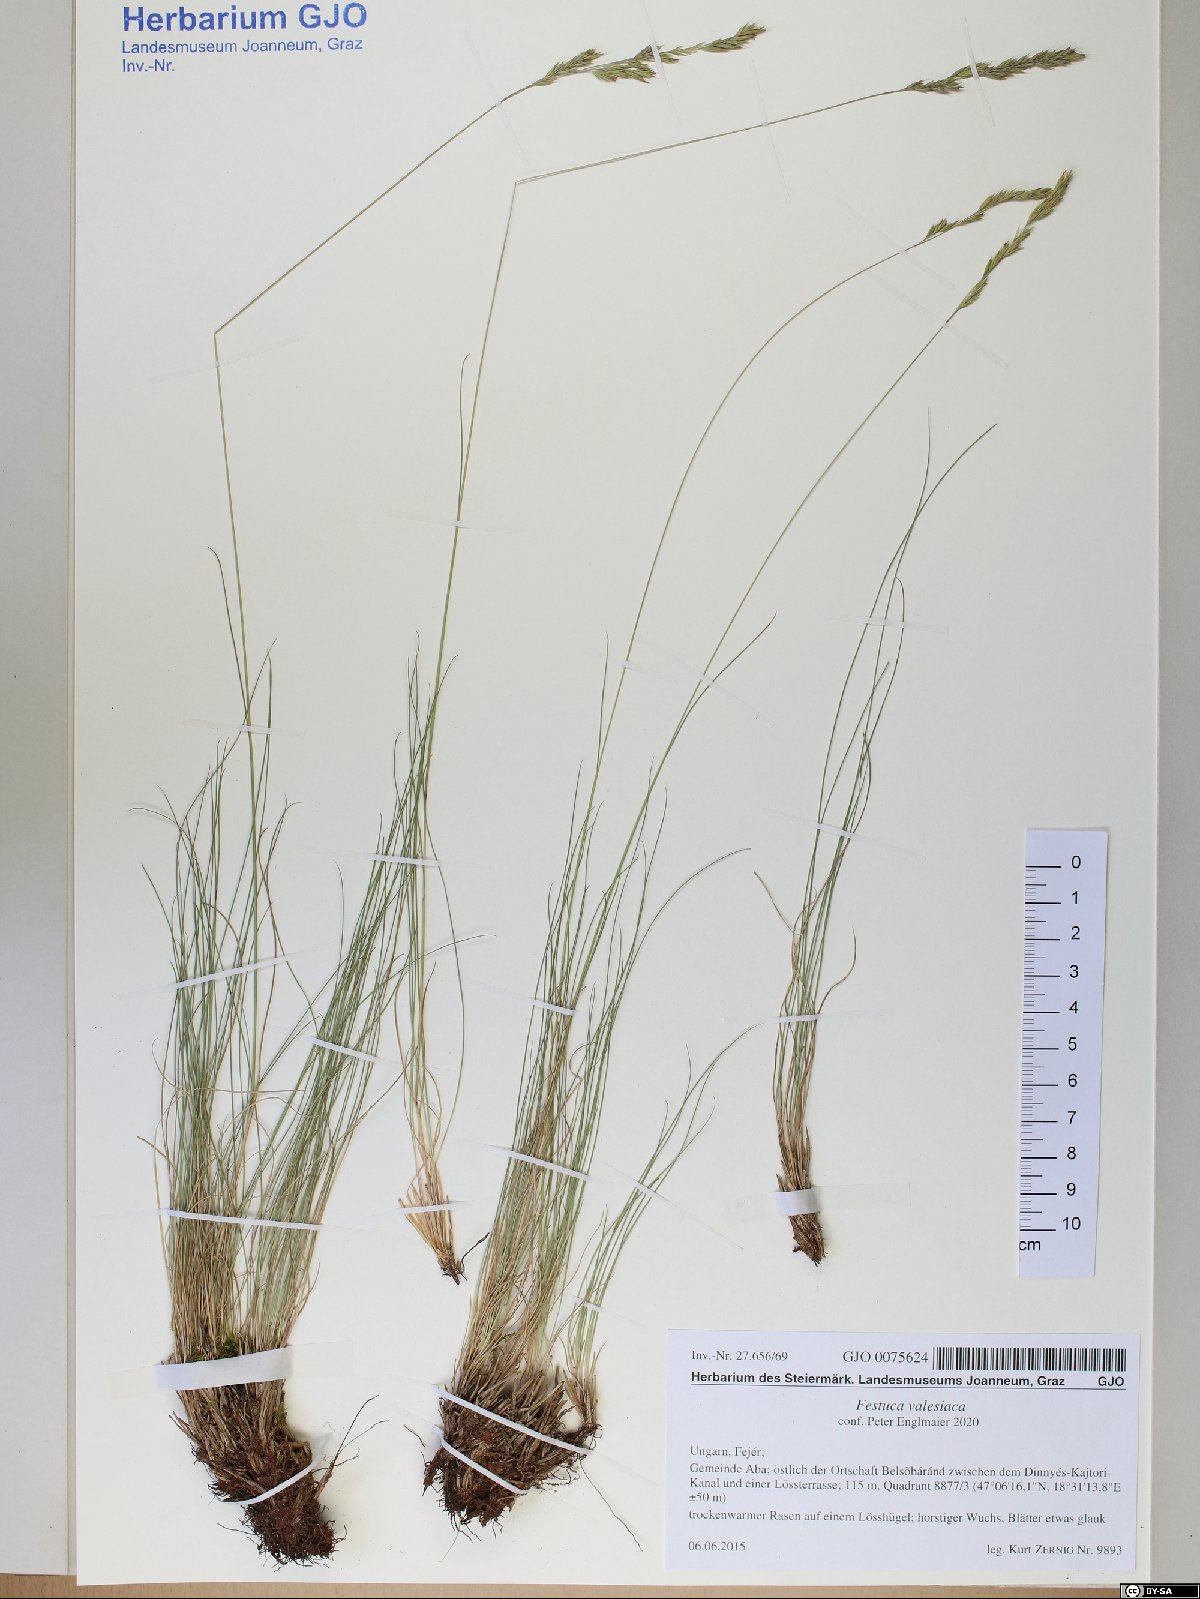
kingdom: Plantae
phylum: Tracheophyta
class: Liliopsida
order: Poales
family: Poaceae
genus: Festuca
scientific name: Festuca valesiaca
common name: Volga fescue
